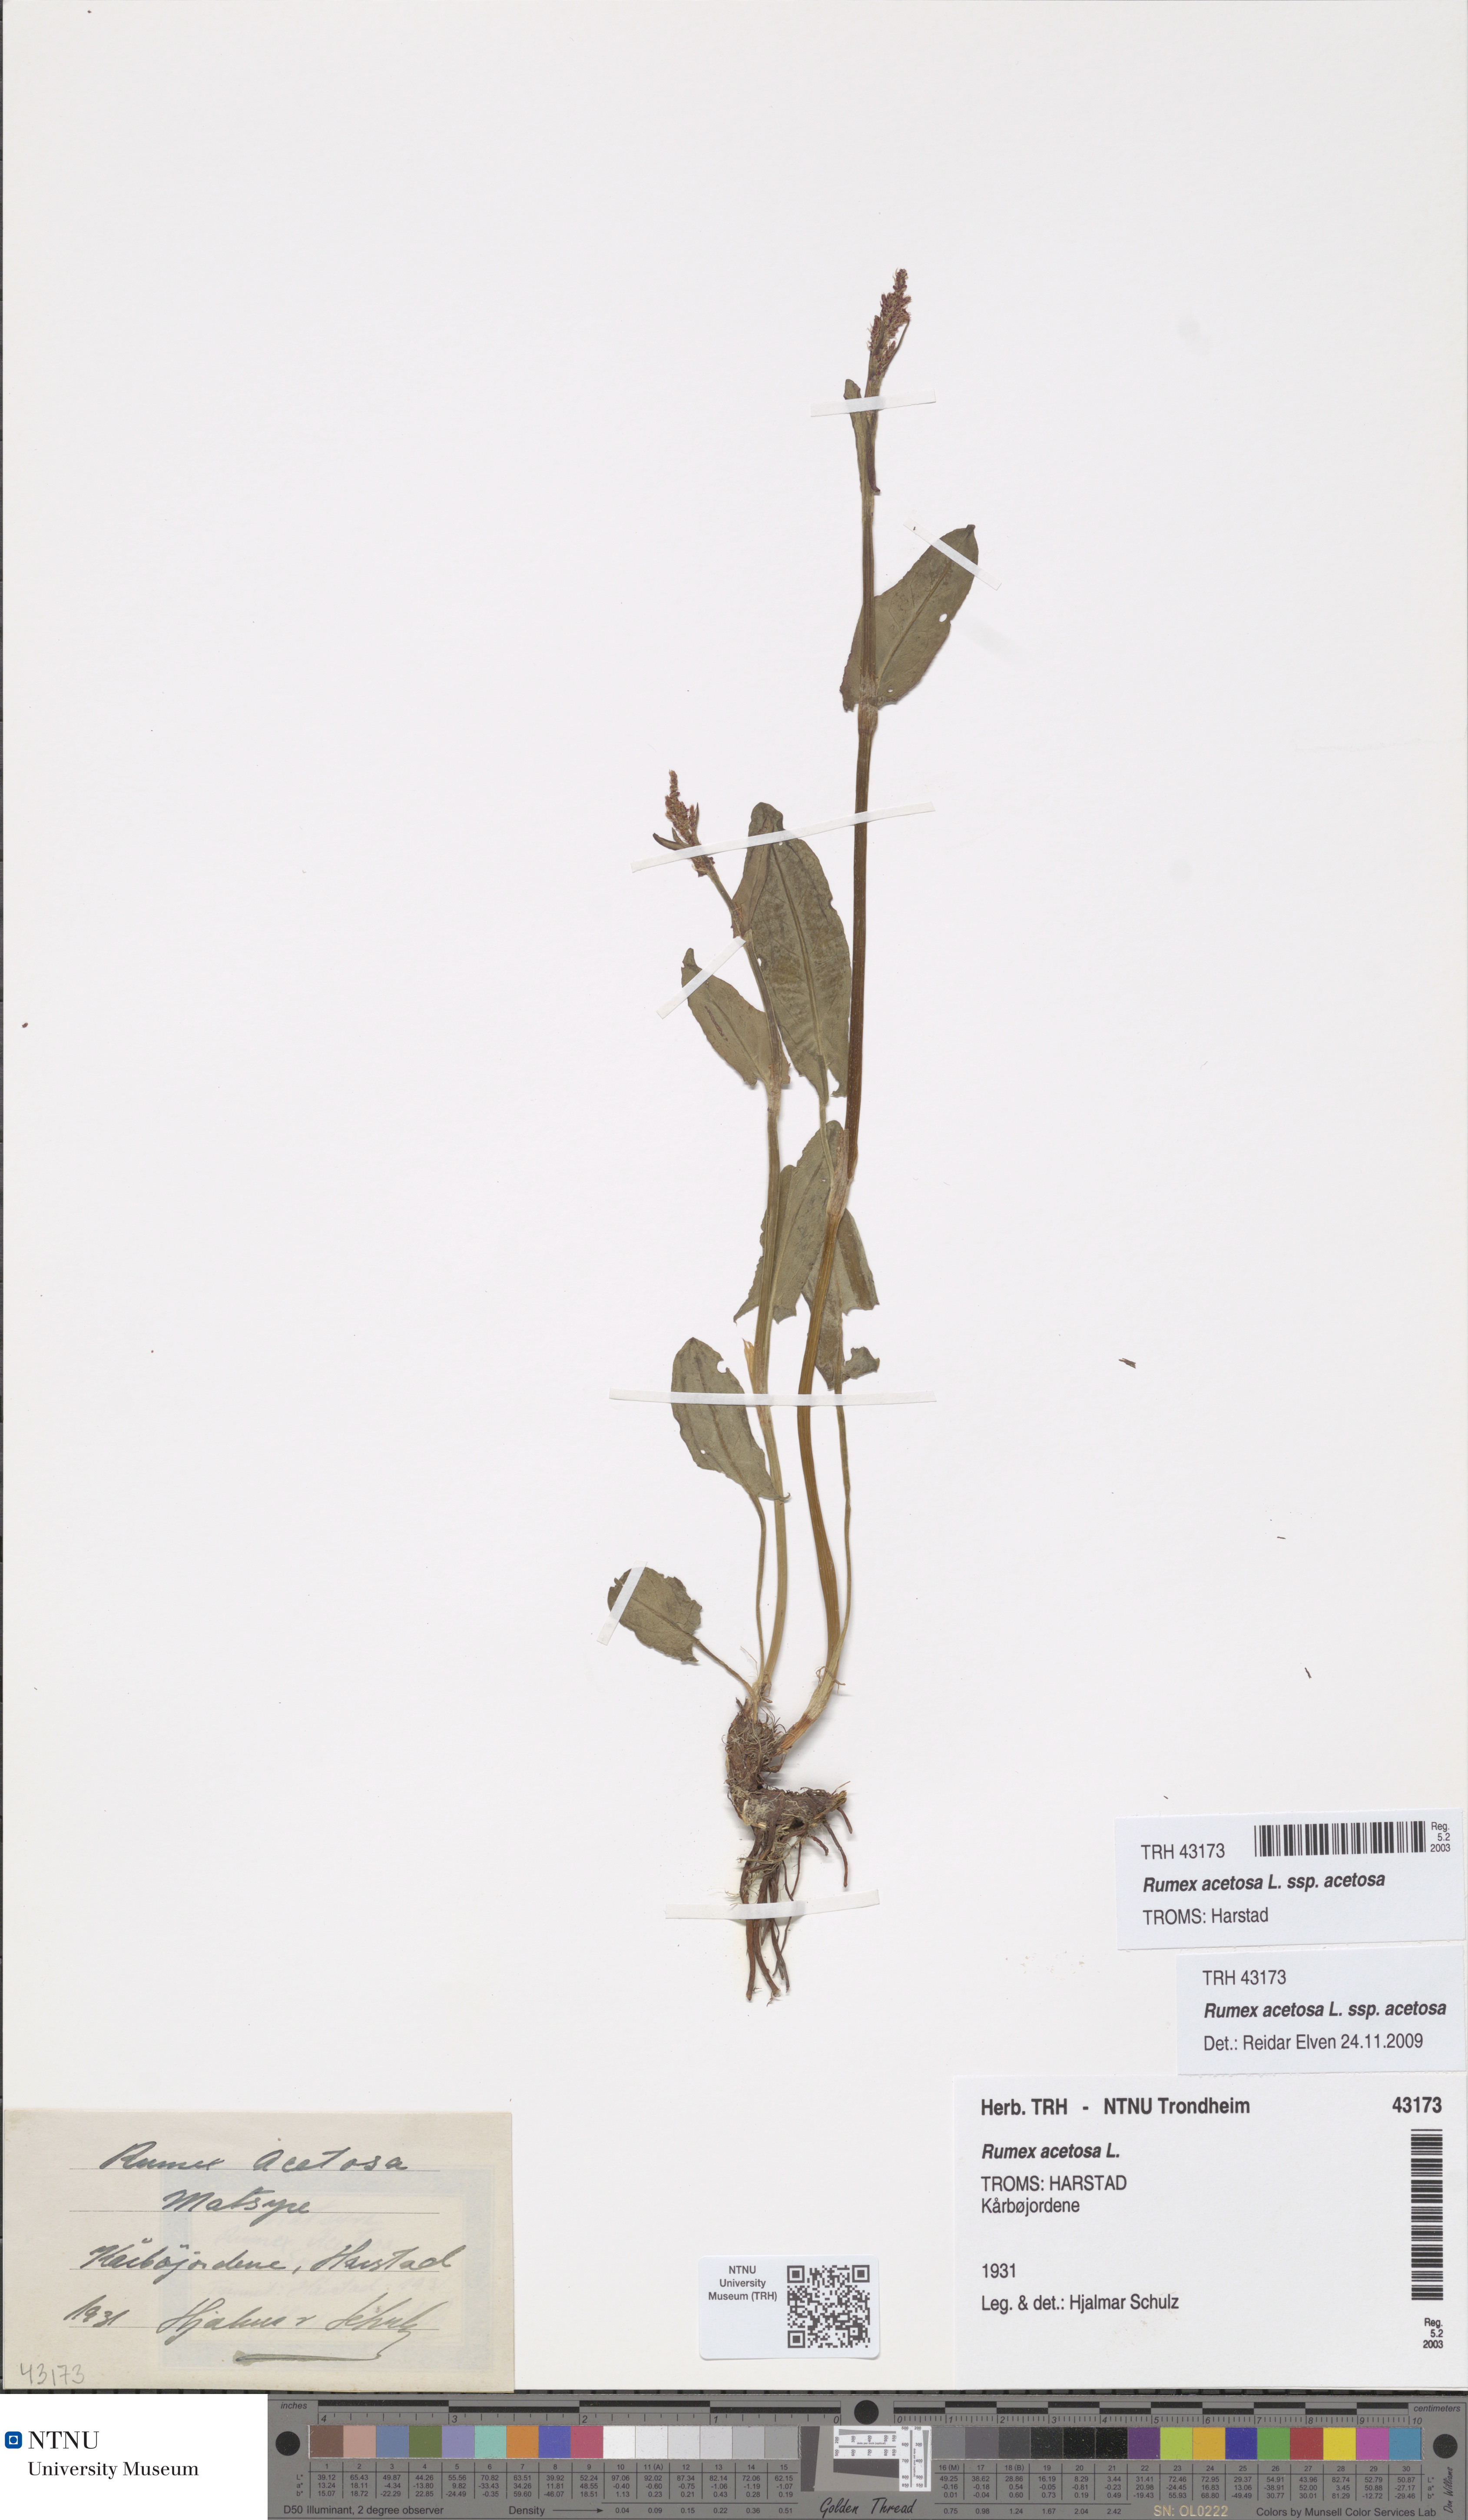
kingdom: Plantae
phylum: Tracheophyta
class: Magnoliopsida
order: Caryophyllales
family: Polygonaceae
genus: Rumex
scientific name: Rumex acetosa
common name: Garden sorrel
